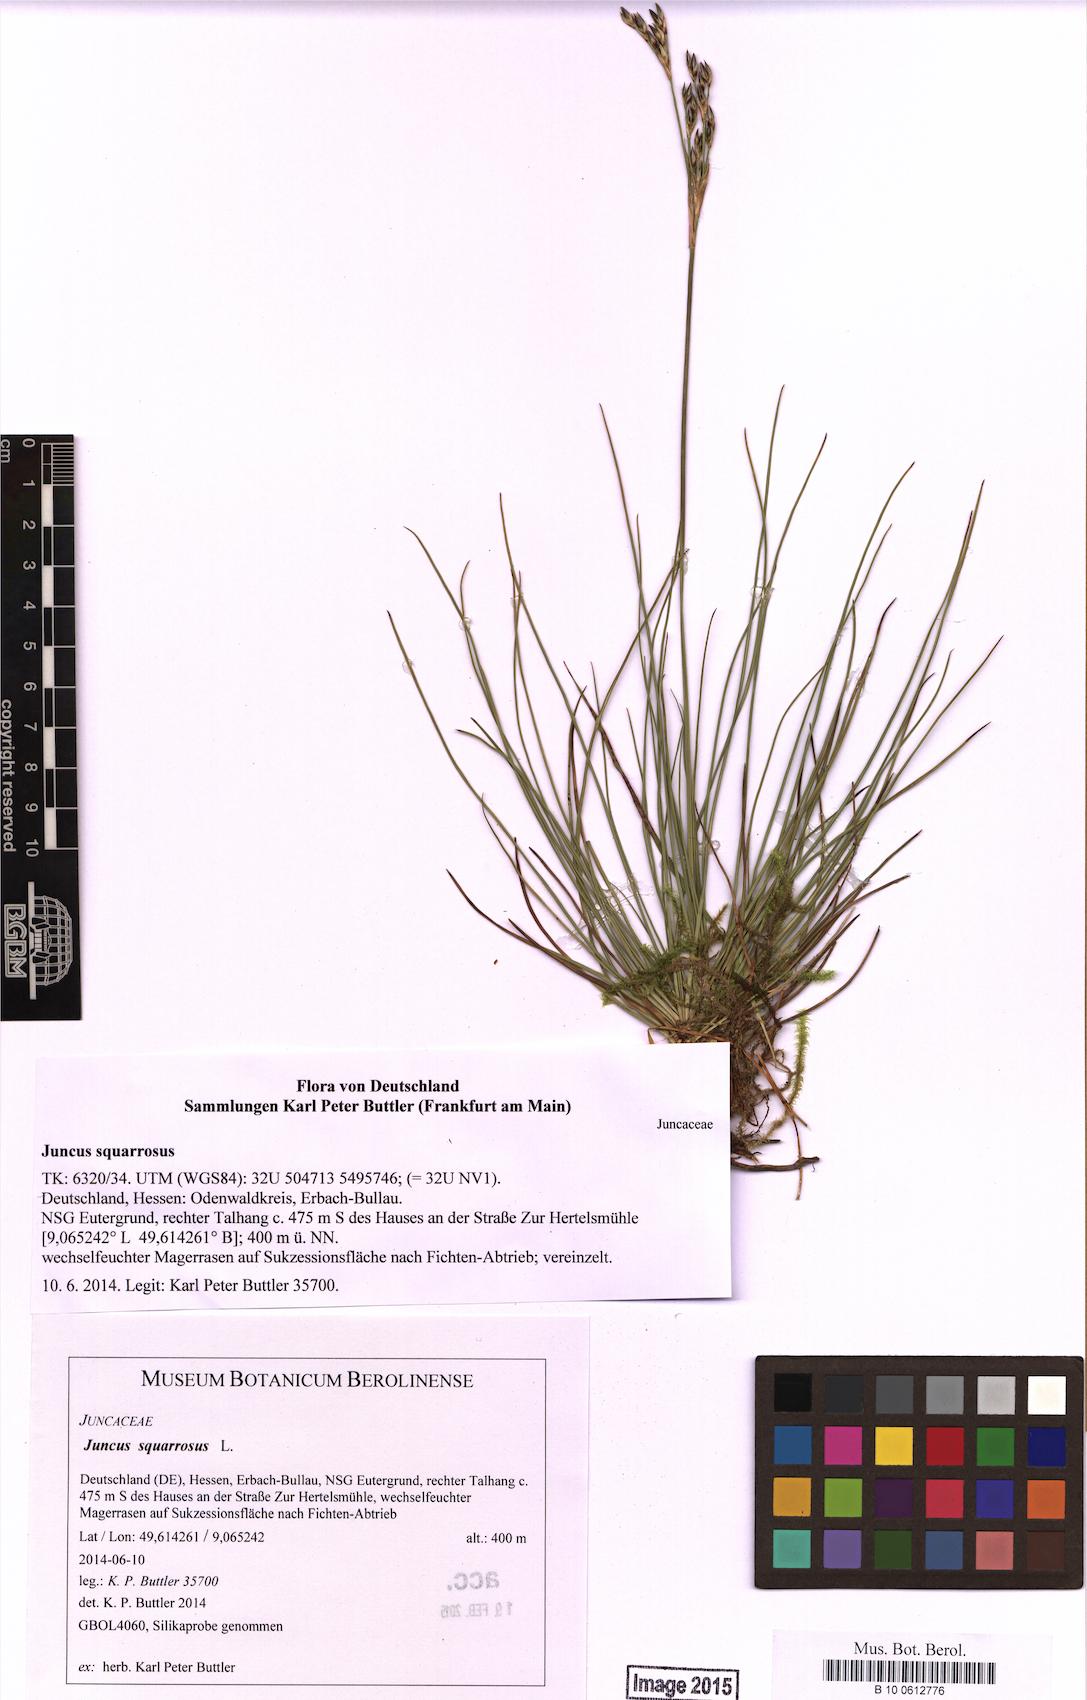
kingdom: Plantae
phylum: Tracheophyta
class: Liliopsida
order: Poales
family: Juncaceae
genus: Juncus
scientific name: Juncus squarrosus
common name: Heath rush
